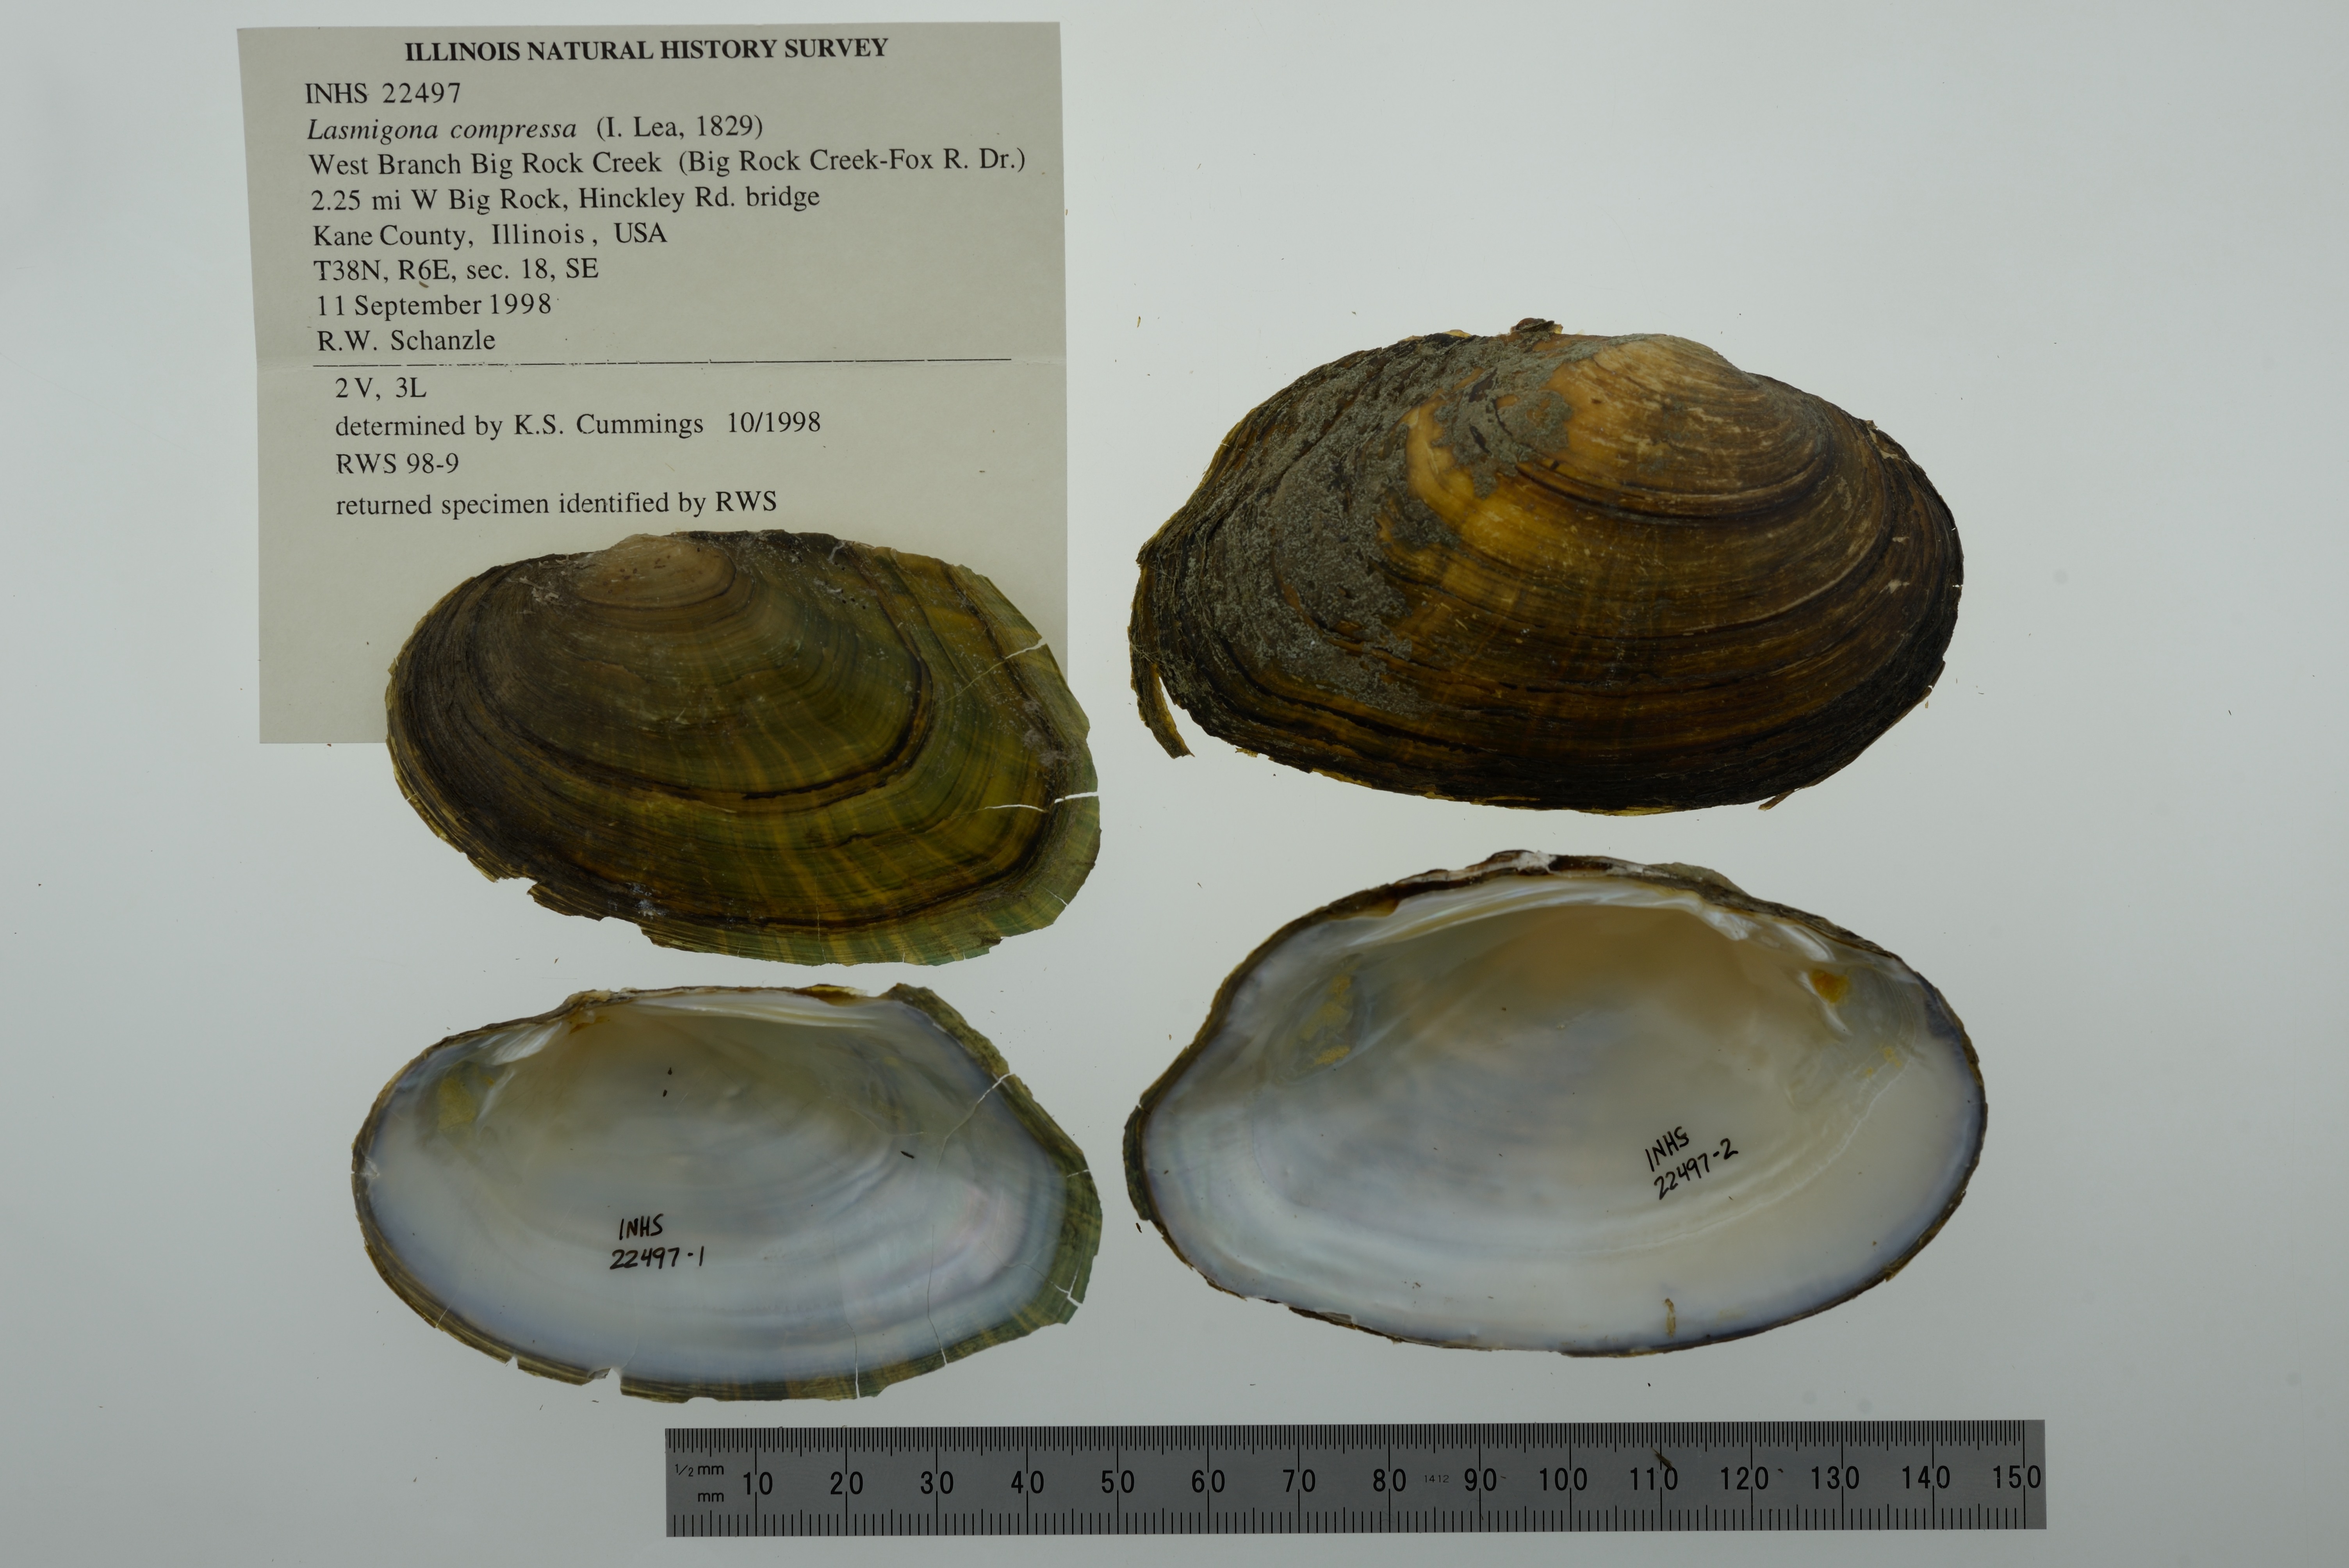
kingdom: Animalia
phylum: Mollusca
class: Bivalvia
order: Unionida
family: Unionidae
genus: Lasmigona
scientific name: Lasmigona compressa
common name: Creek heelsplitter
